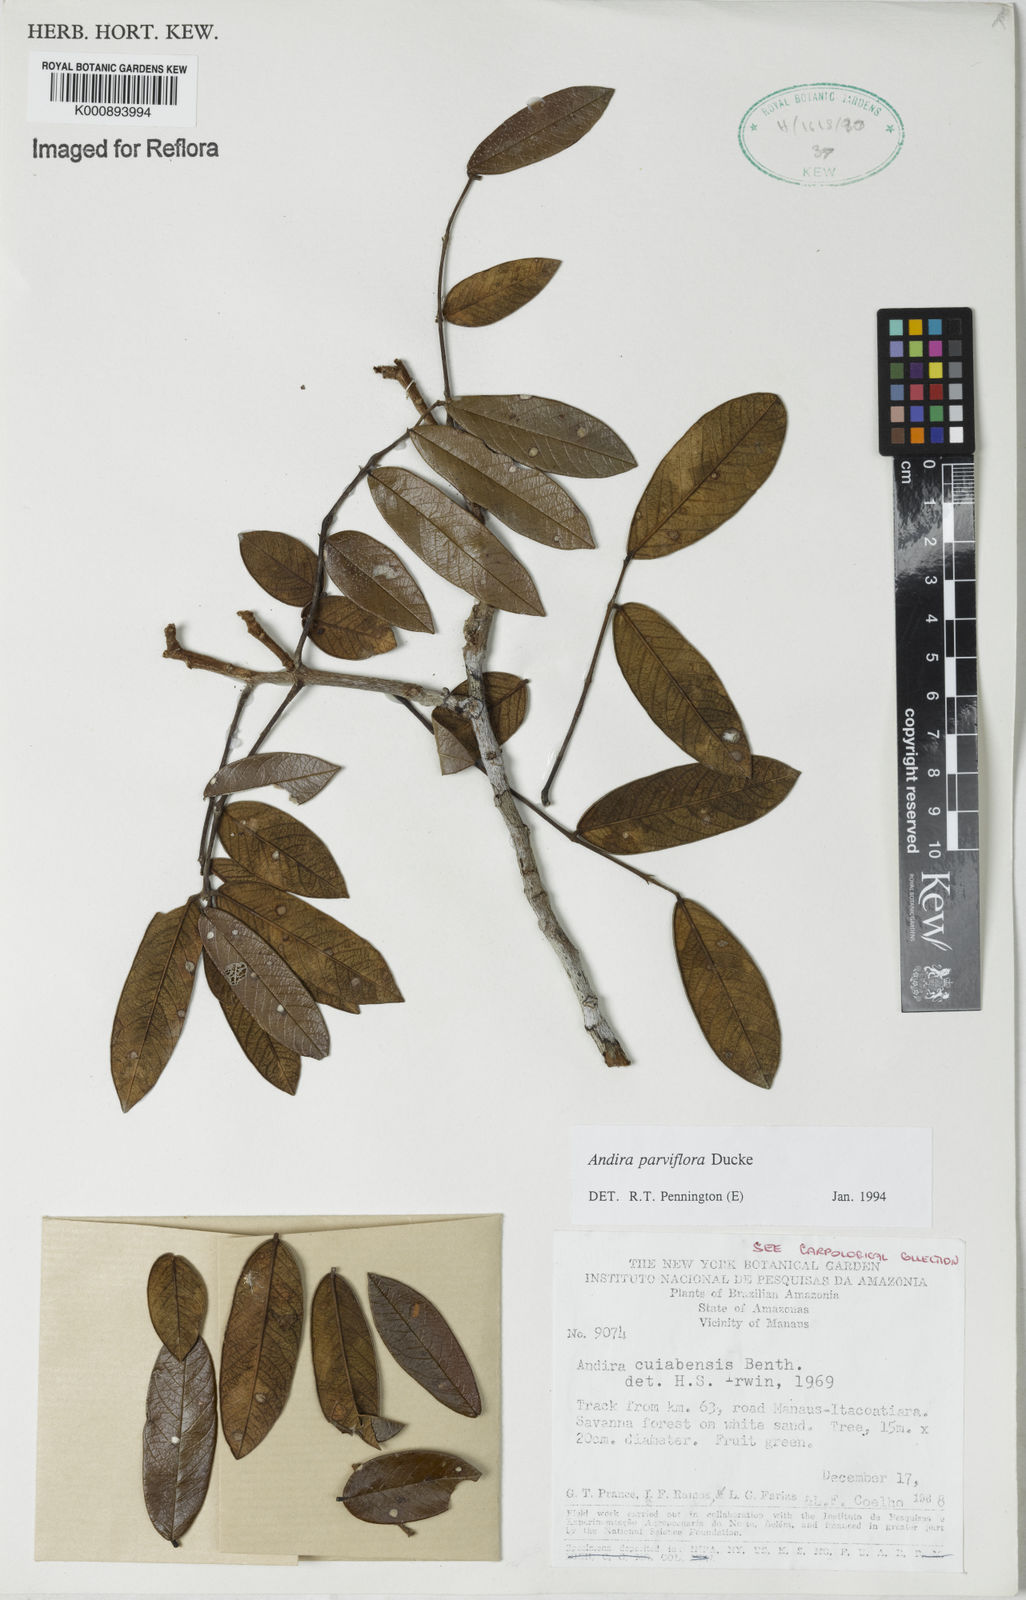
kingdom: Plantae
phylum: Tracheophyta
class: Magnoliopsida
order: Fabales
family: Fabaceae
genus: Andira
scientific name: Andira parviflora
